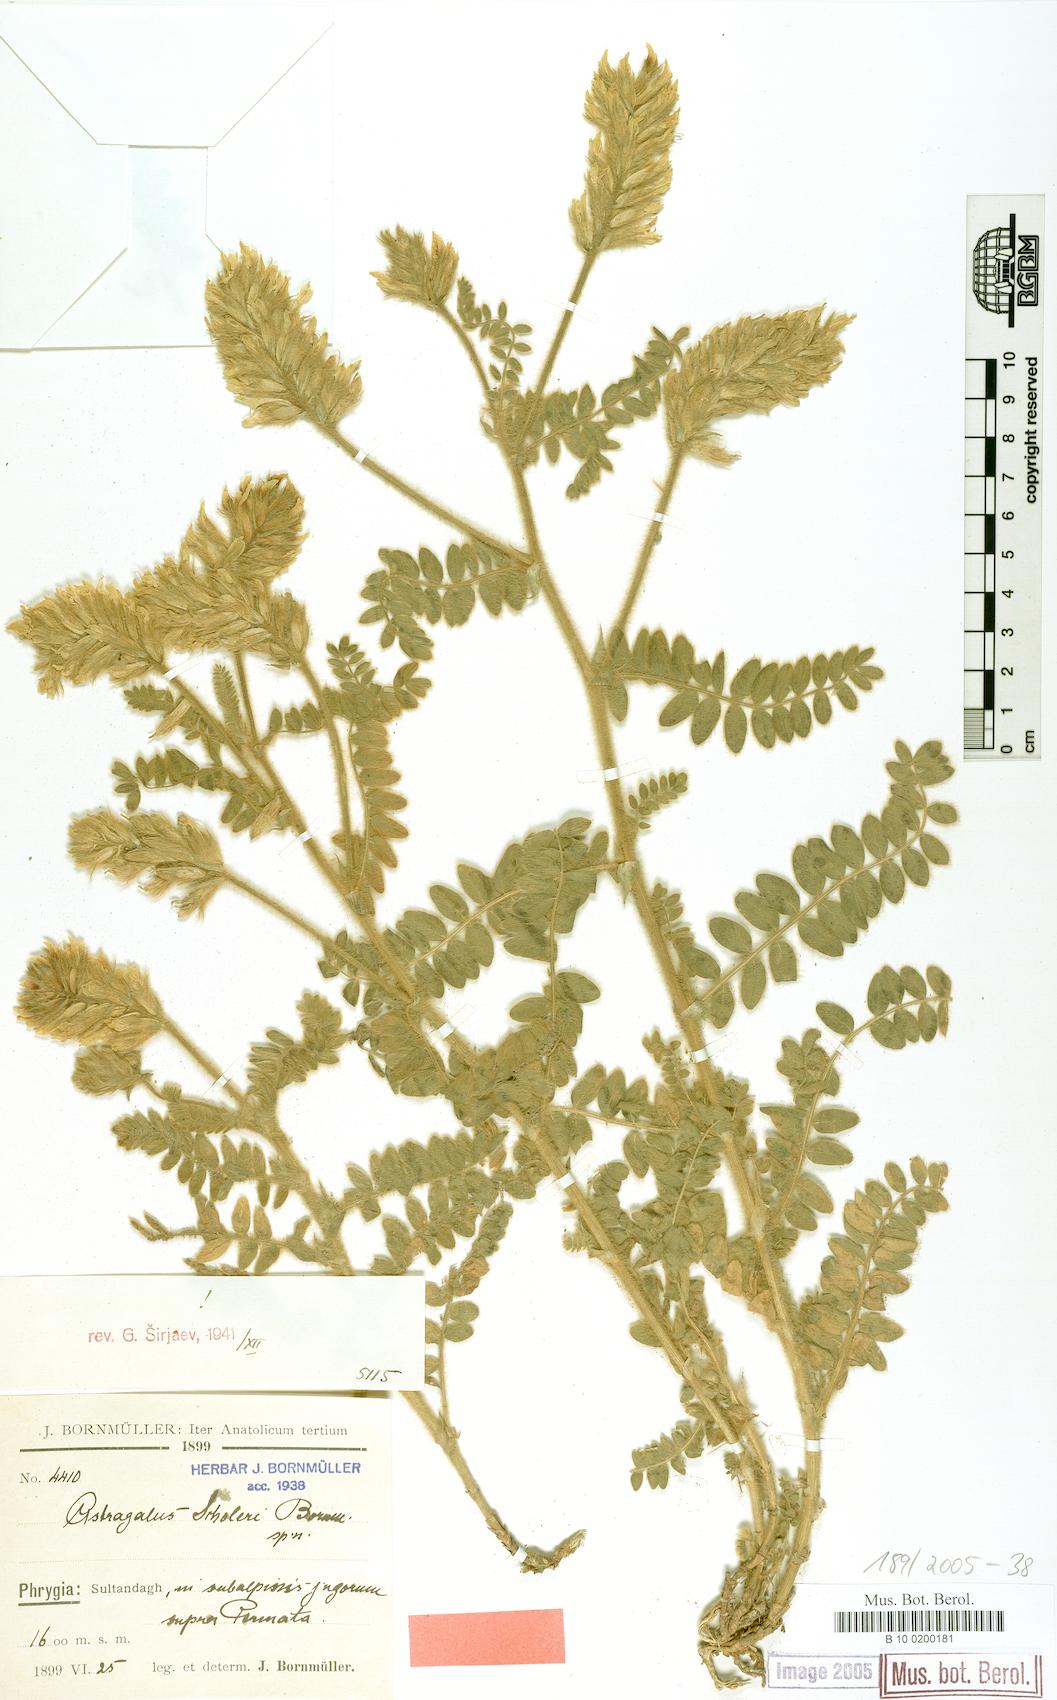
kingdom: Plantae
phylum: Tracheophyta
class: Magnoliopsida
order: Fabales
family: Fabaceae
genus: Astragalus
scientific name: Astragalus scholerianus
